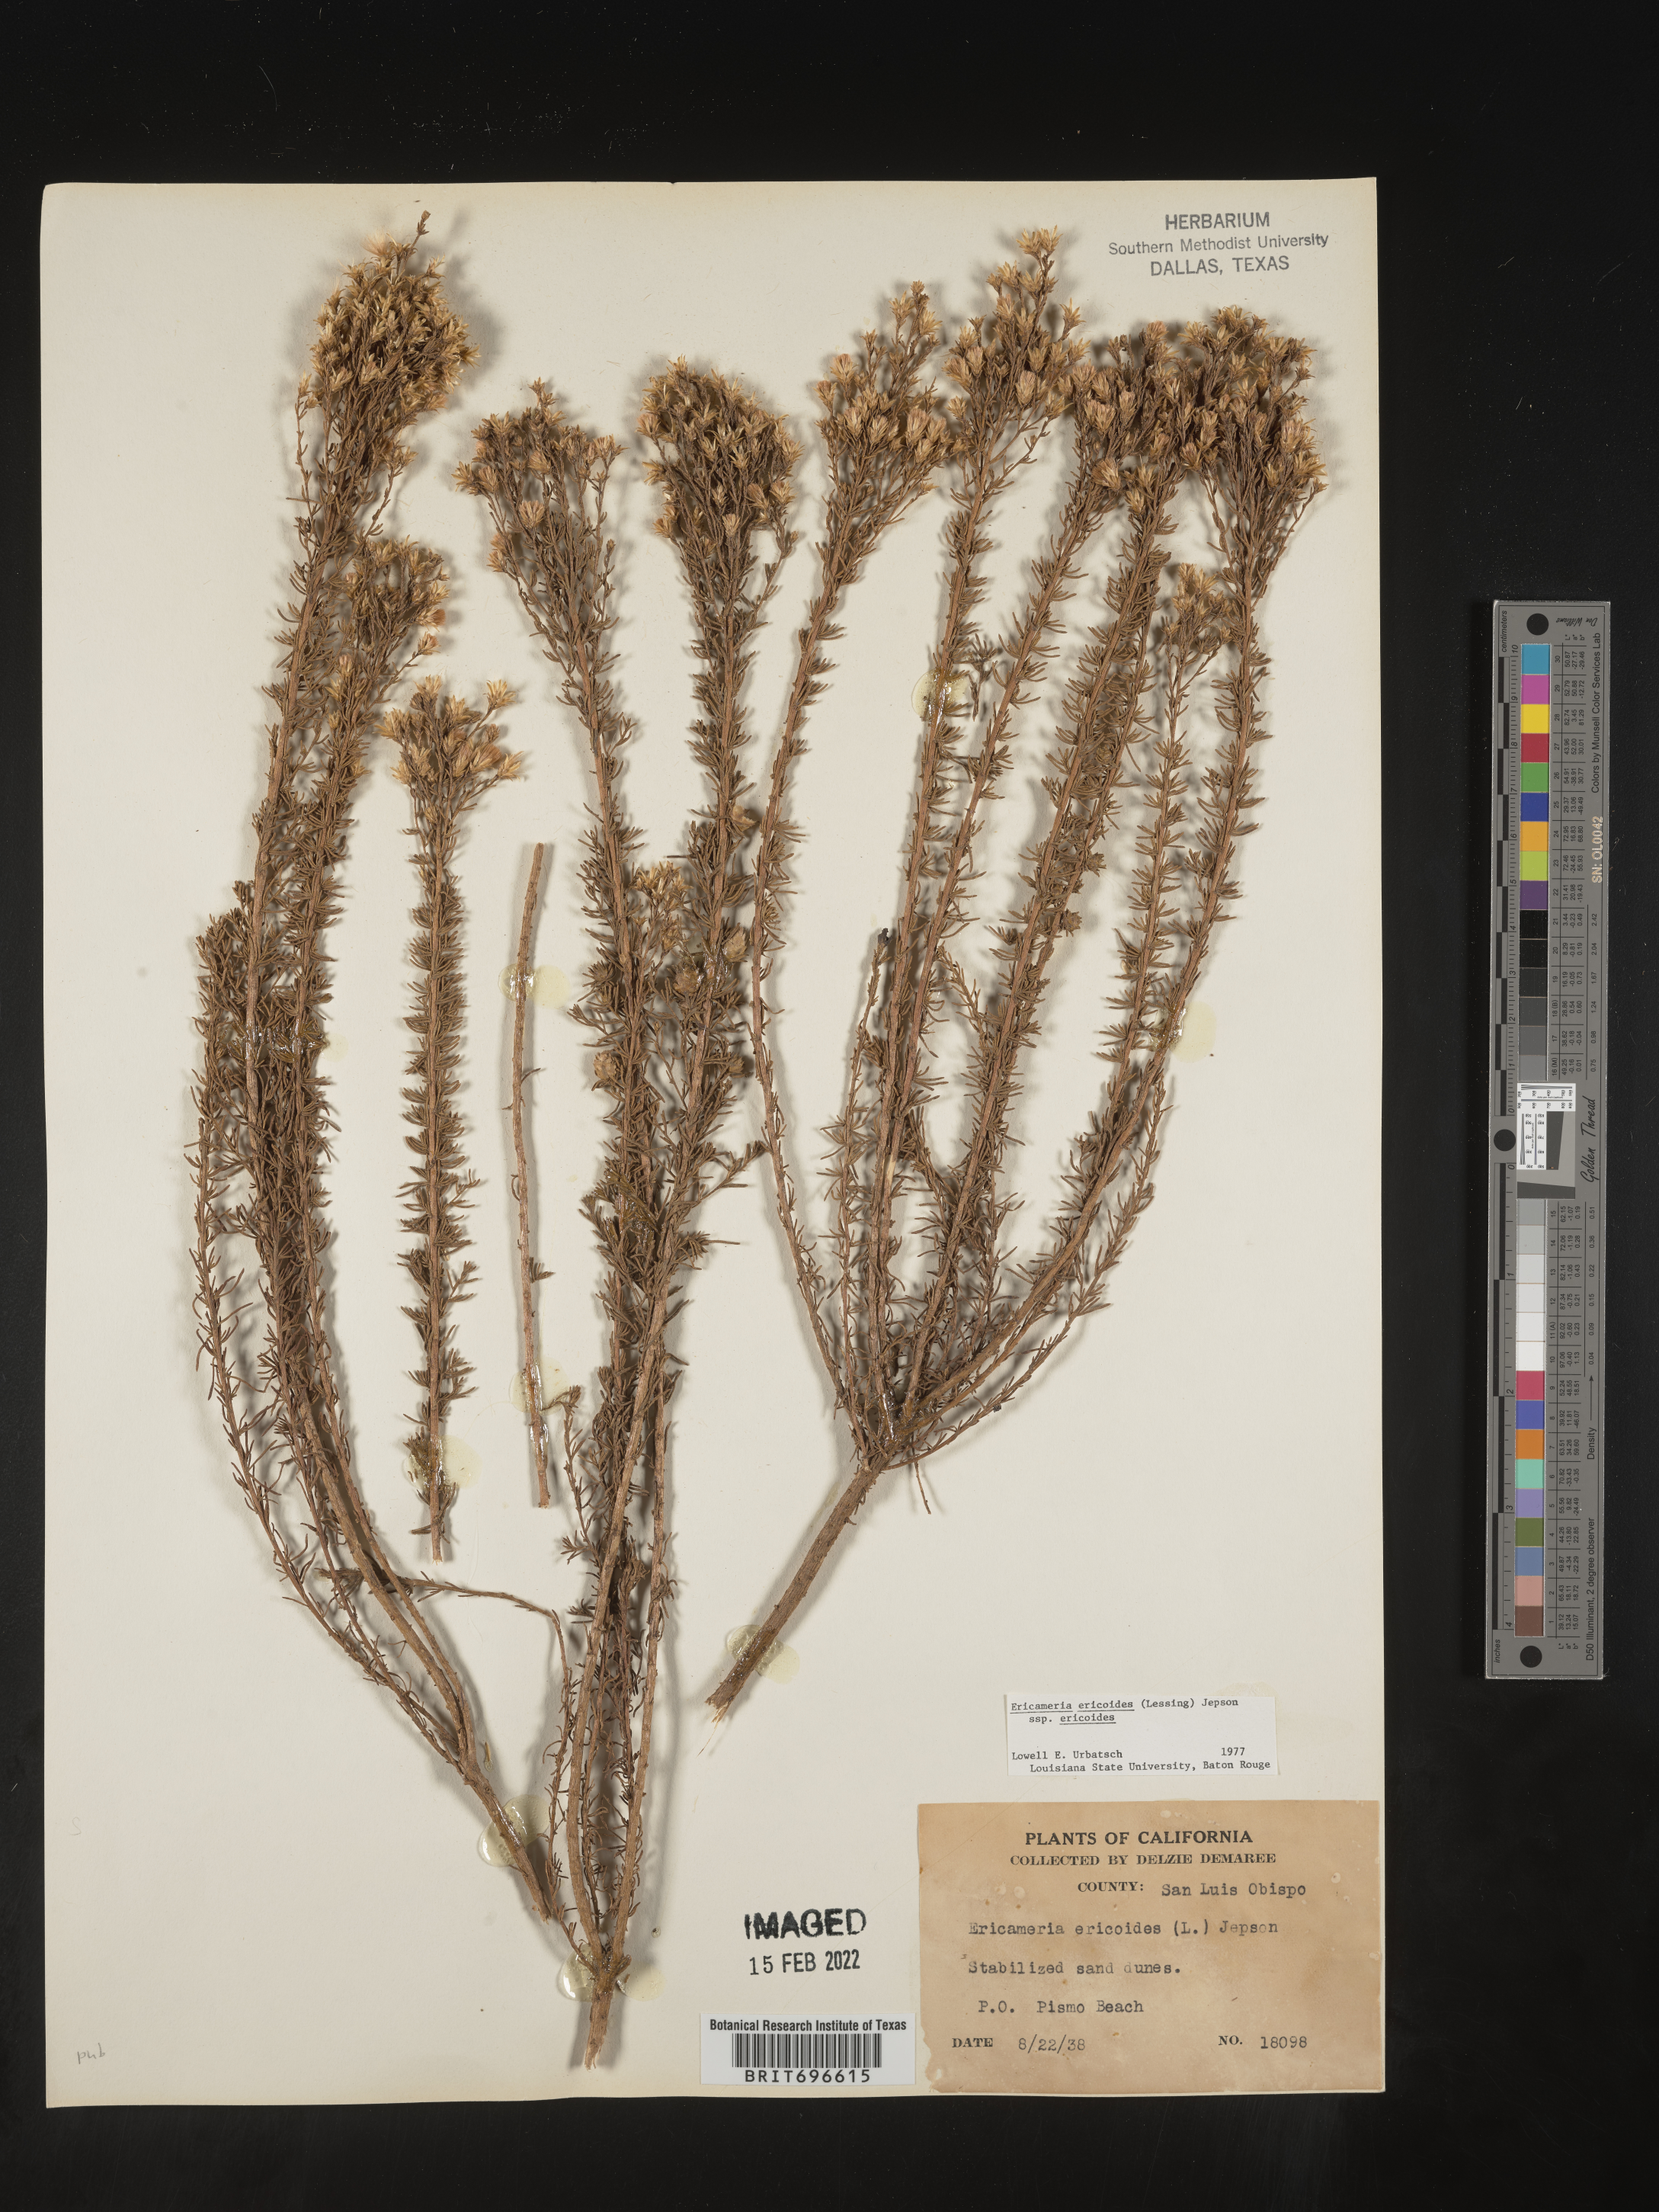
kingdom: Plantae
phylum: Tracheophyta
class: Magnoliopsida
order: Asterales
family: Asteraceae
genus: Ericameria
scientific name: Ericameria ericoides
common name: California goldenbush
